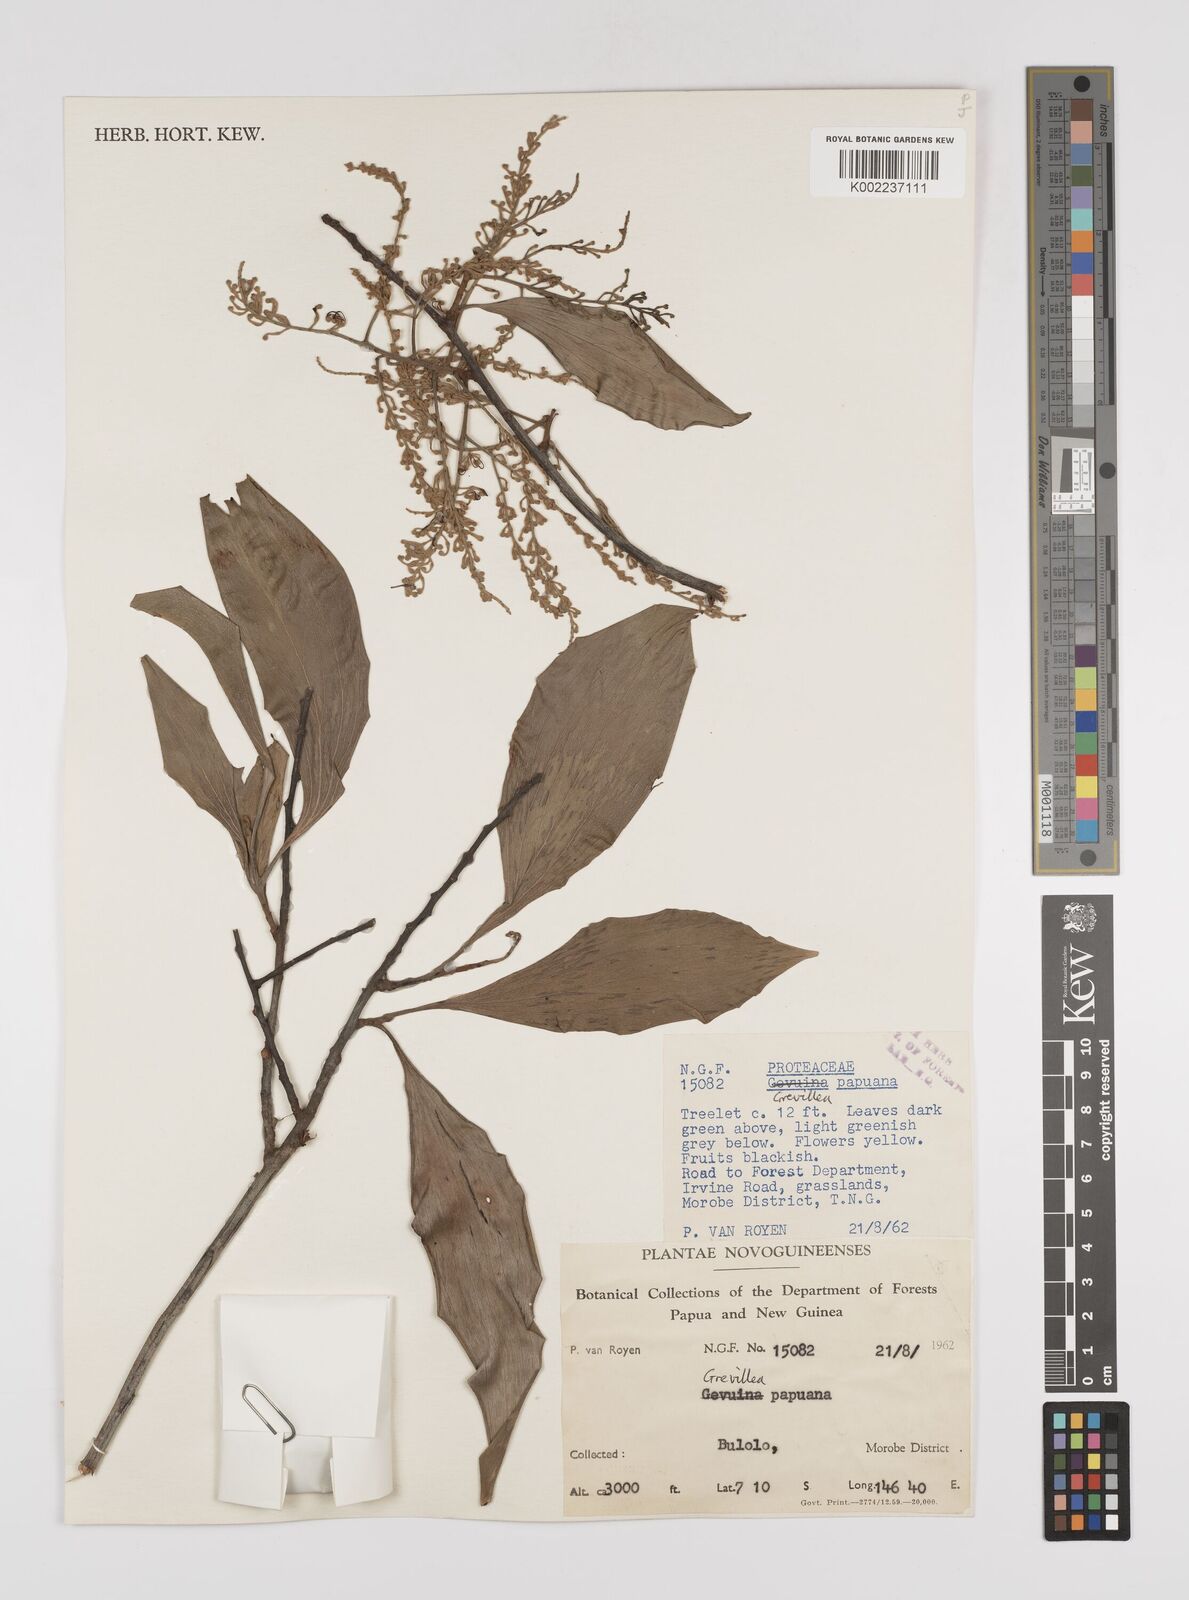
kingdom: Plantae
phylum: Tracheophyta
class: Magnoliopsida
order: Proteales
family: Proteaceae
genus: Grevillea
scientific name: Grevillea papuana
